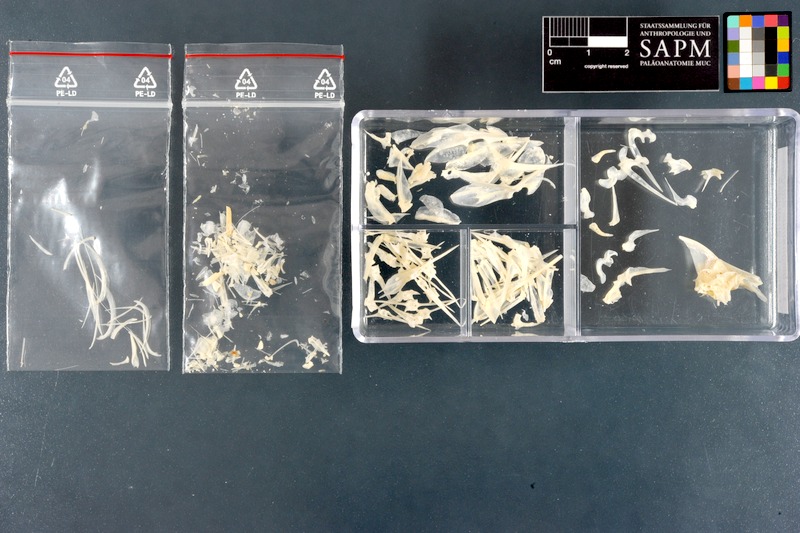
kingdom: Animalia
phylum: Chordata
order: Perciformes
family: Leiognathidae
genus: Leiognathus
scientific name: Leiognathus equulus
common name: Common ponyfish
